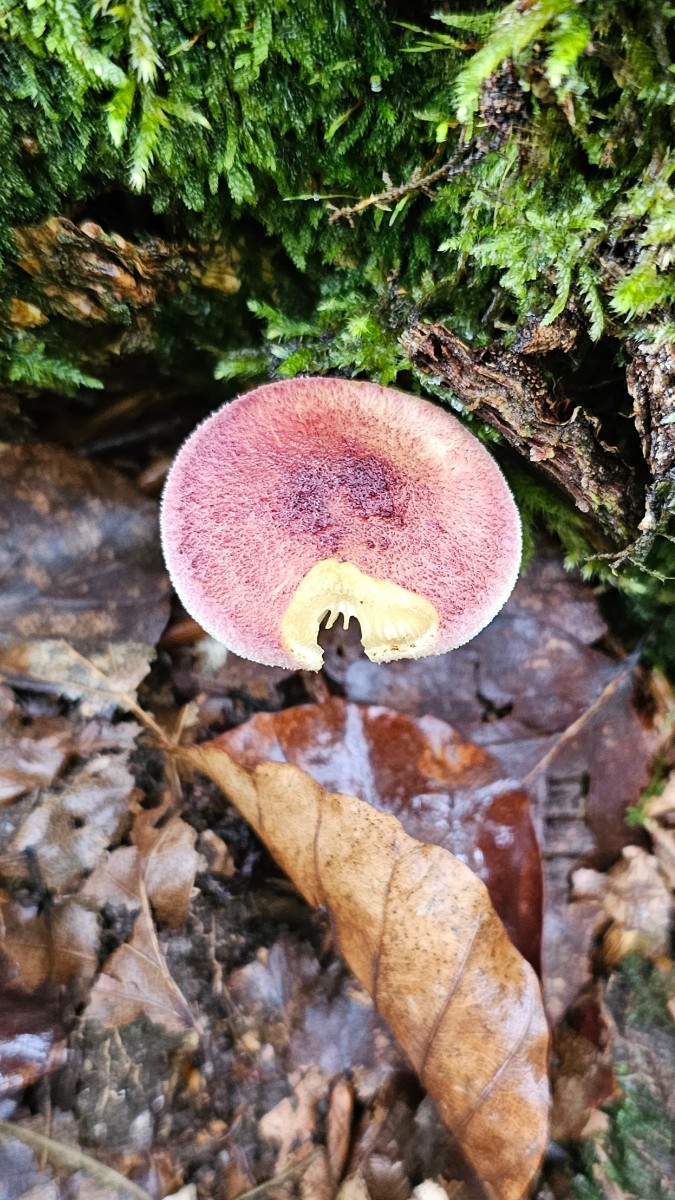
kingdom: Fungi
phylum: Basidiomycota
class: Agaricomycetes
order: Agaricales
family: Tricholomataceae
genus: Tricholomopsis
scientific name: Tricholomopsis rutilans
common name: purpur-væbnerhat
